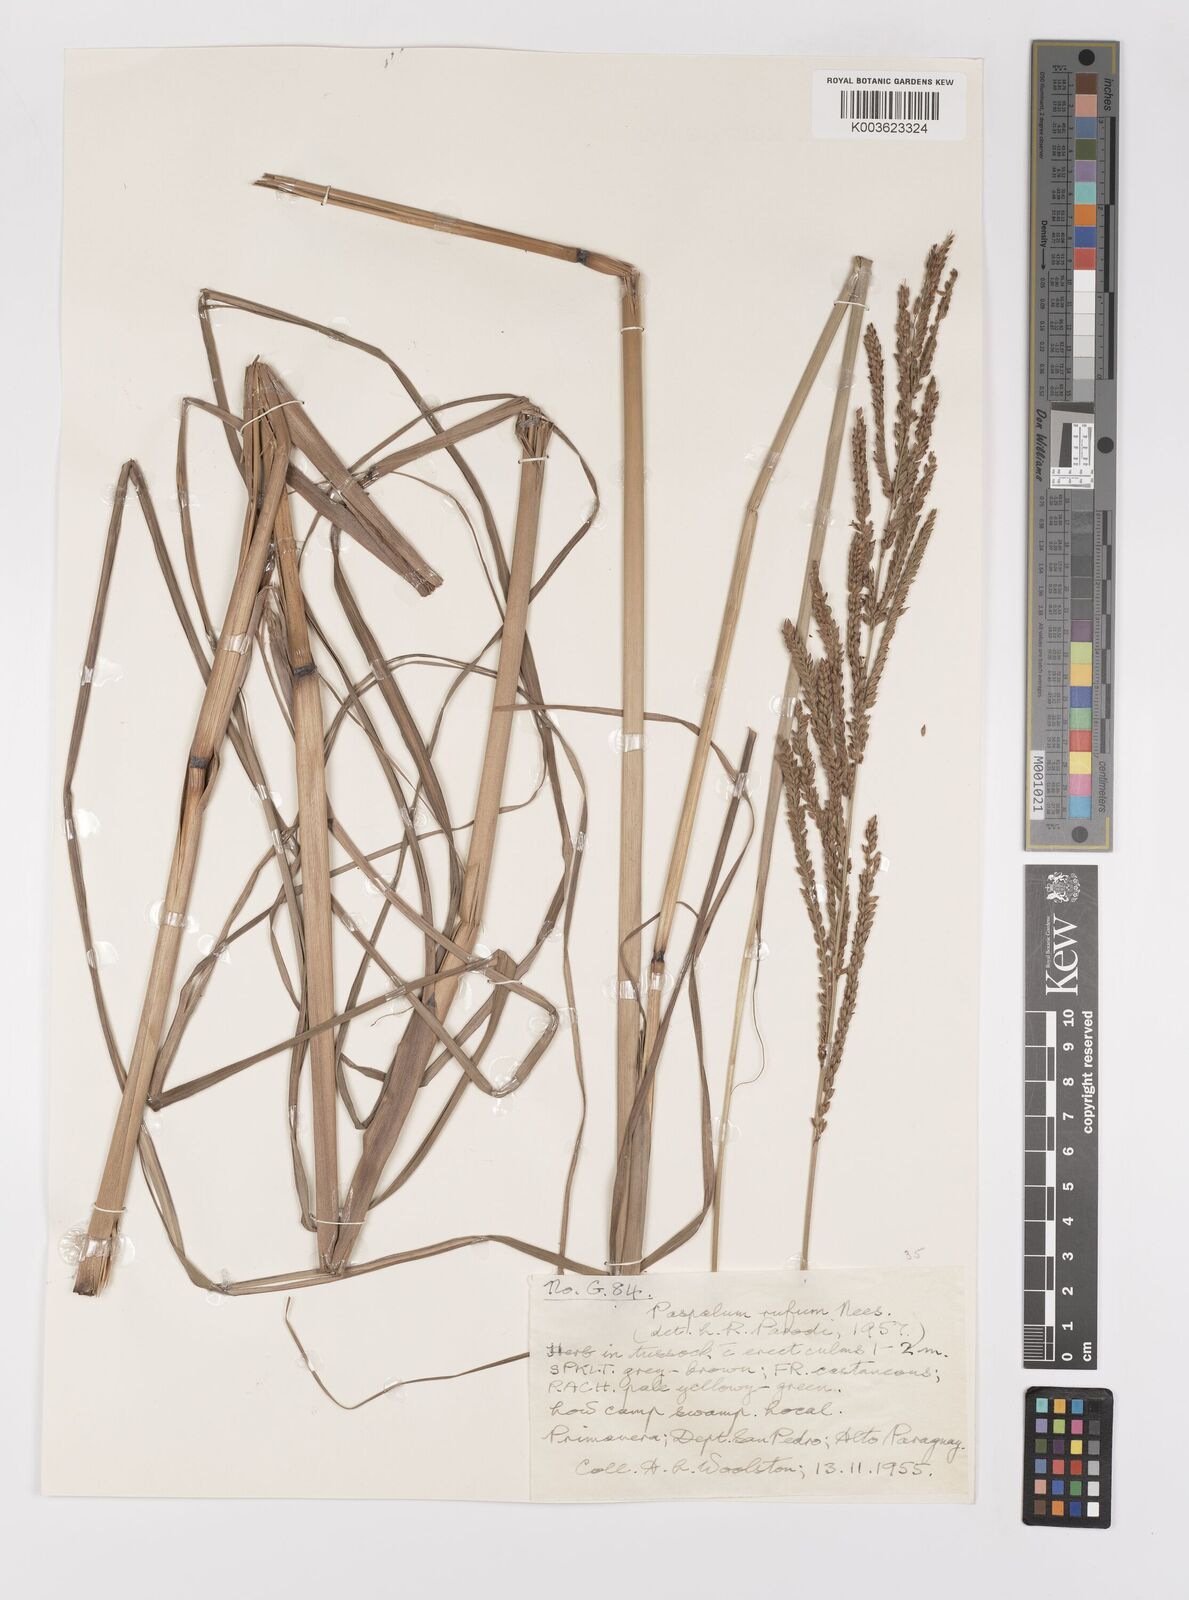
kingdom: Plantae
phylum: Tracheophyta
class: Liliopsida
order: Poales
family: Poaceae
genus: Paspalum
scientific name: Paspalum rufum
